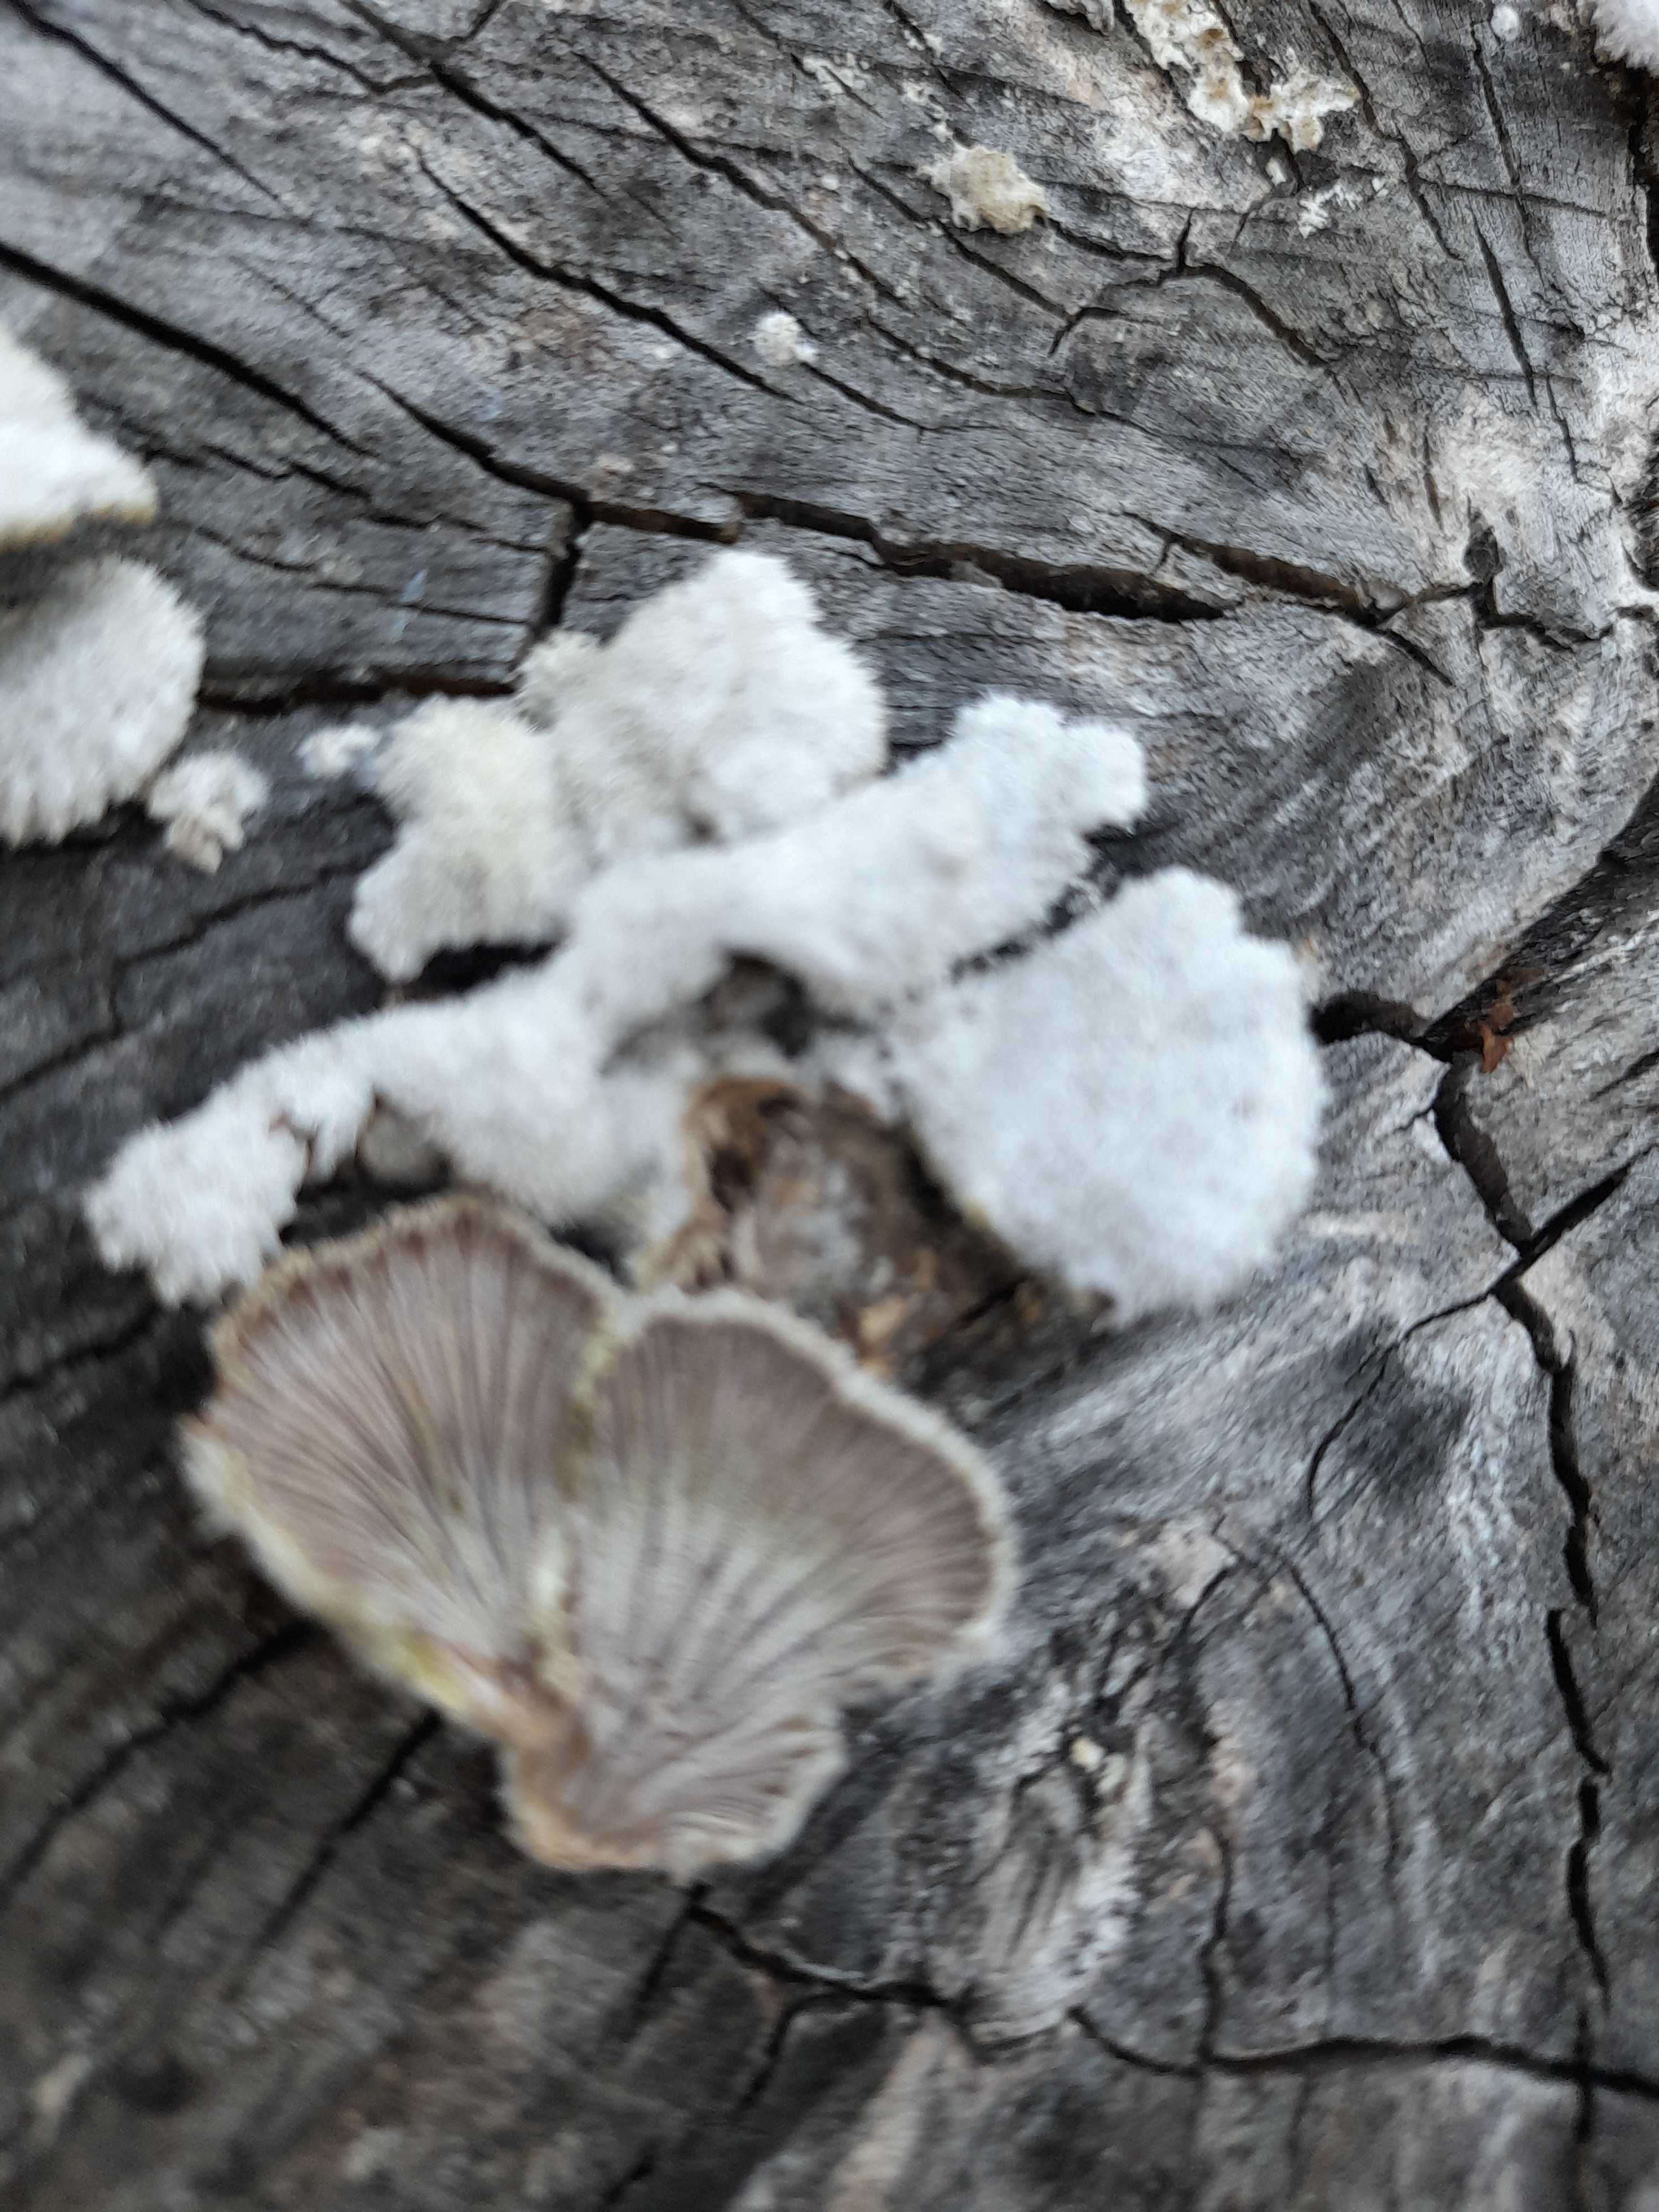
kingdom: Fungi
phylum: Basidiomycota
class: Agaricomycetes
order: Agaricales
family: Schizophyllaceae
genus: Schizophyllum
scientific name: Schizophyllum commune
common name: kløvblad
